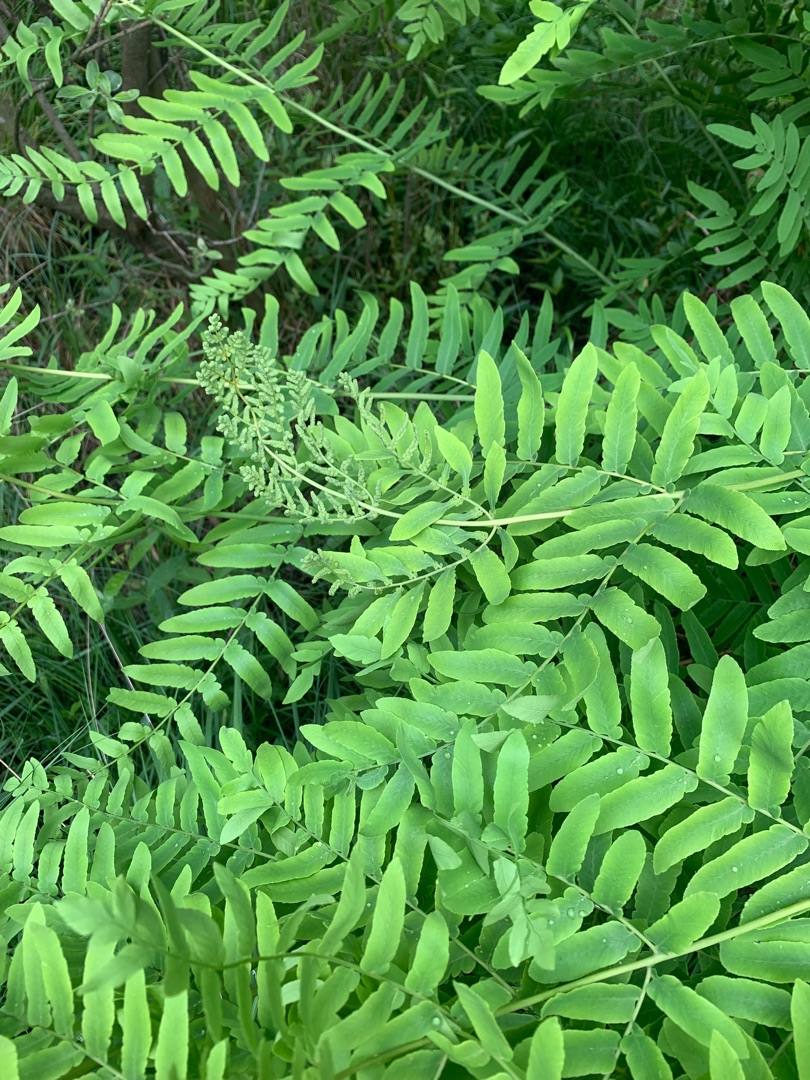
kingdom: Plantae
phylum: Tracheophyta
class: Polypodiopsida
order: Osmundales
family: Osmundaceae
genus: Osmunda
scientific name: Osmunda regalis
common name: Kongebregne
